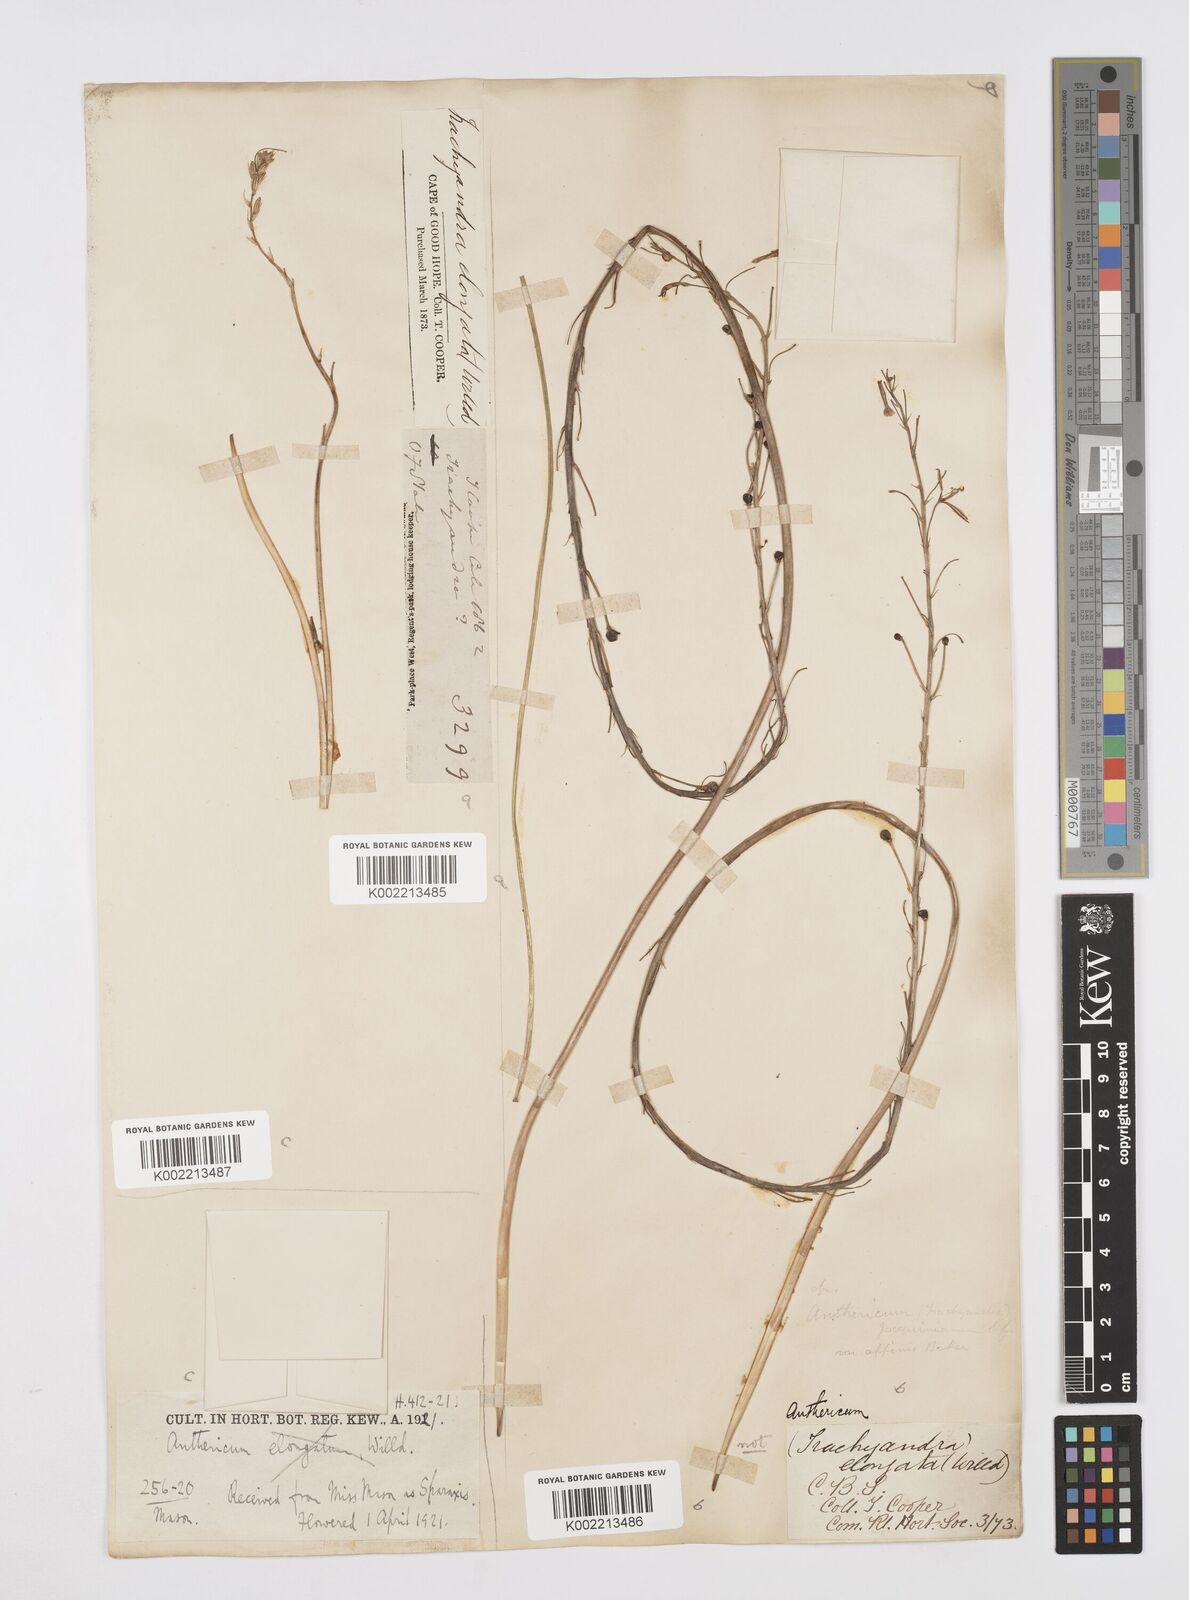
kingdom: Plantae
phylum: Tracheophyta
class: Liliopsida
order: Asparagales
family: Asphodelaceae
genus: Trachyandra
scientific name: Trachyandra saltii
